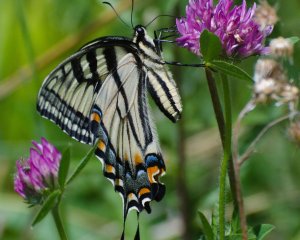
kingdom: Animalia
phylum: Arthropoda
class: Insecta
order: Lepidoptera
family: Papilionidae
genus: Pterourus
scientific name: Pterourus canadensis
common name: Canadian Tiger Swallowtail
